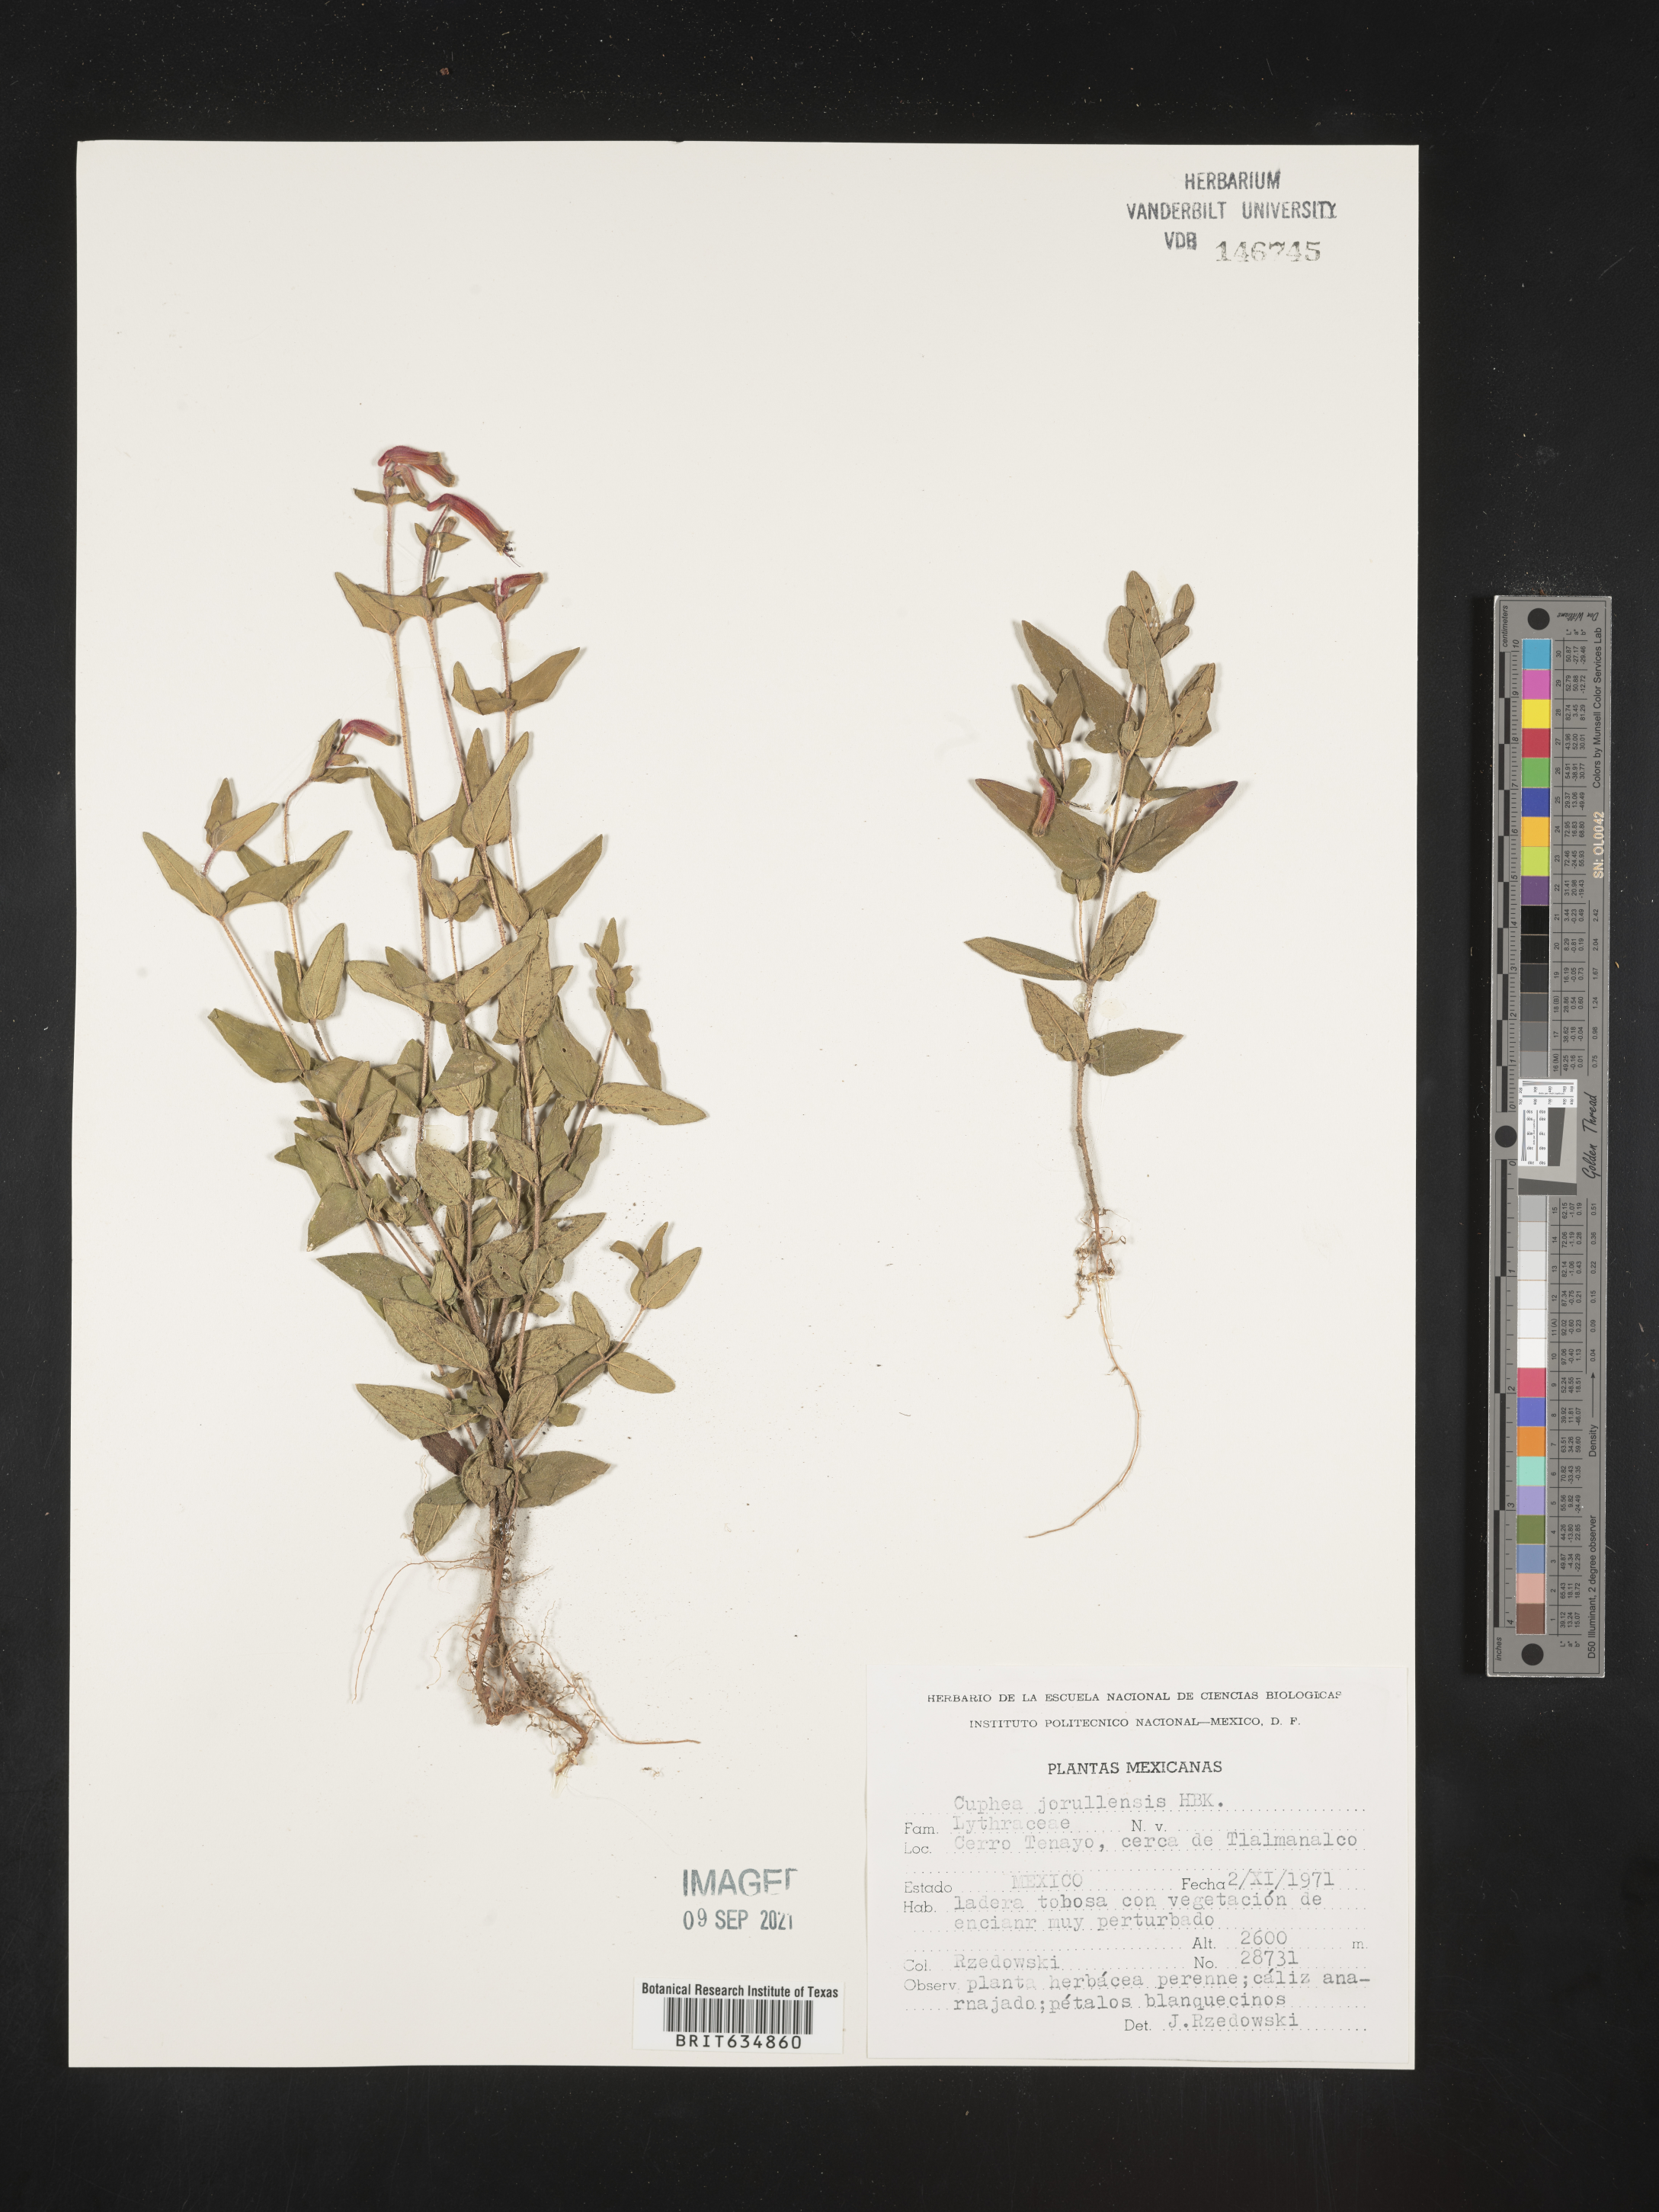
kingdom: Plantae
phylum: Tracheophyta
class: Magnoliopsida
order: Myrtales
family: Lythraceae
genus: Cuphea
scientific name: Cuphea
